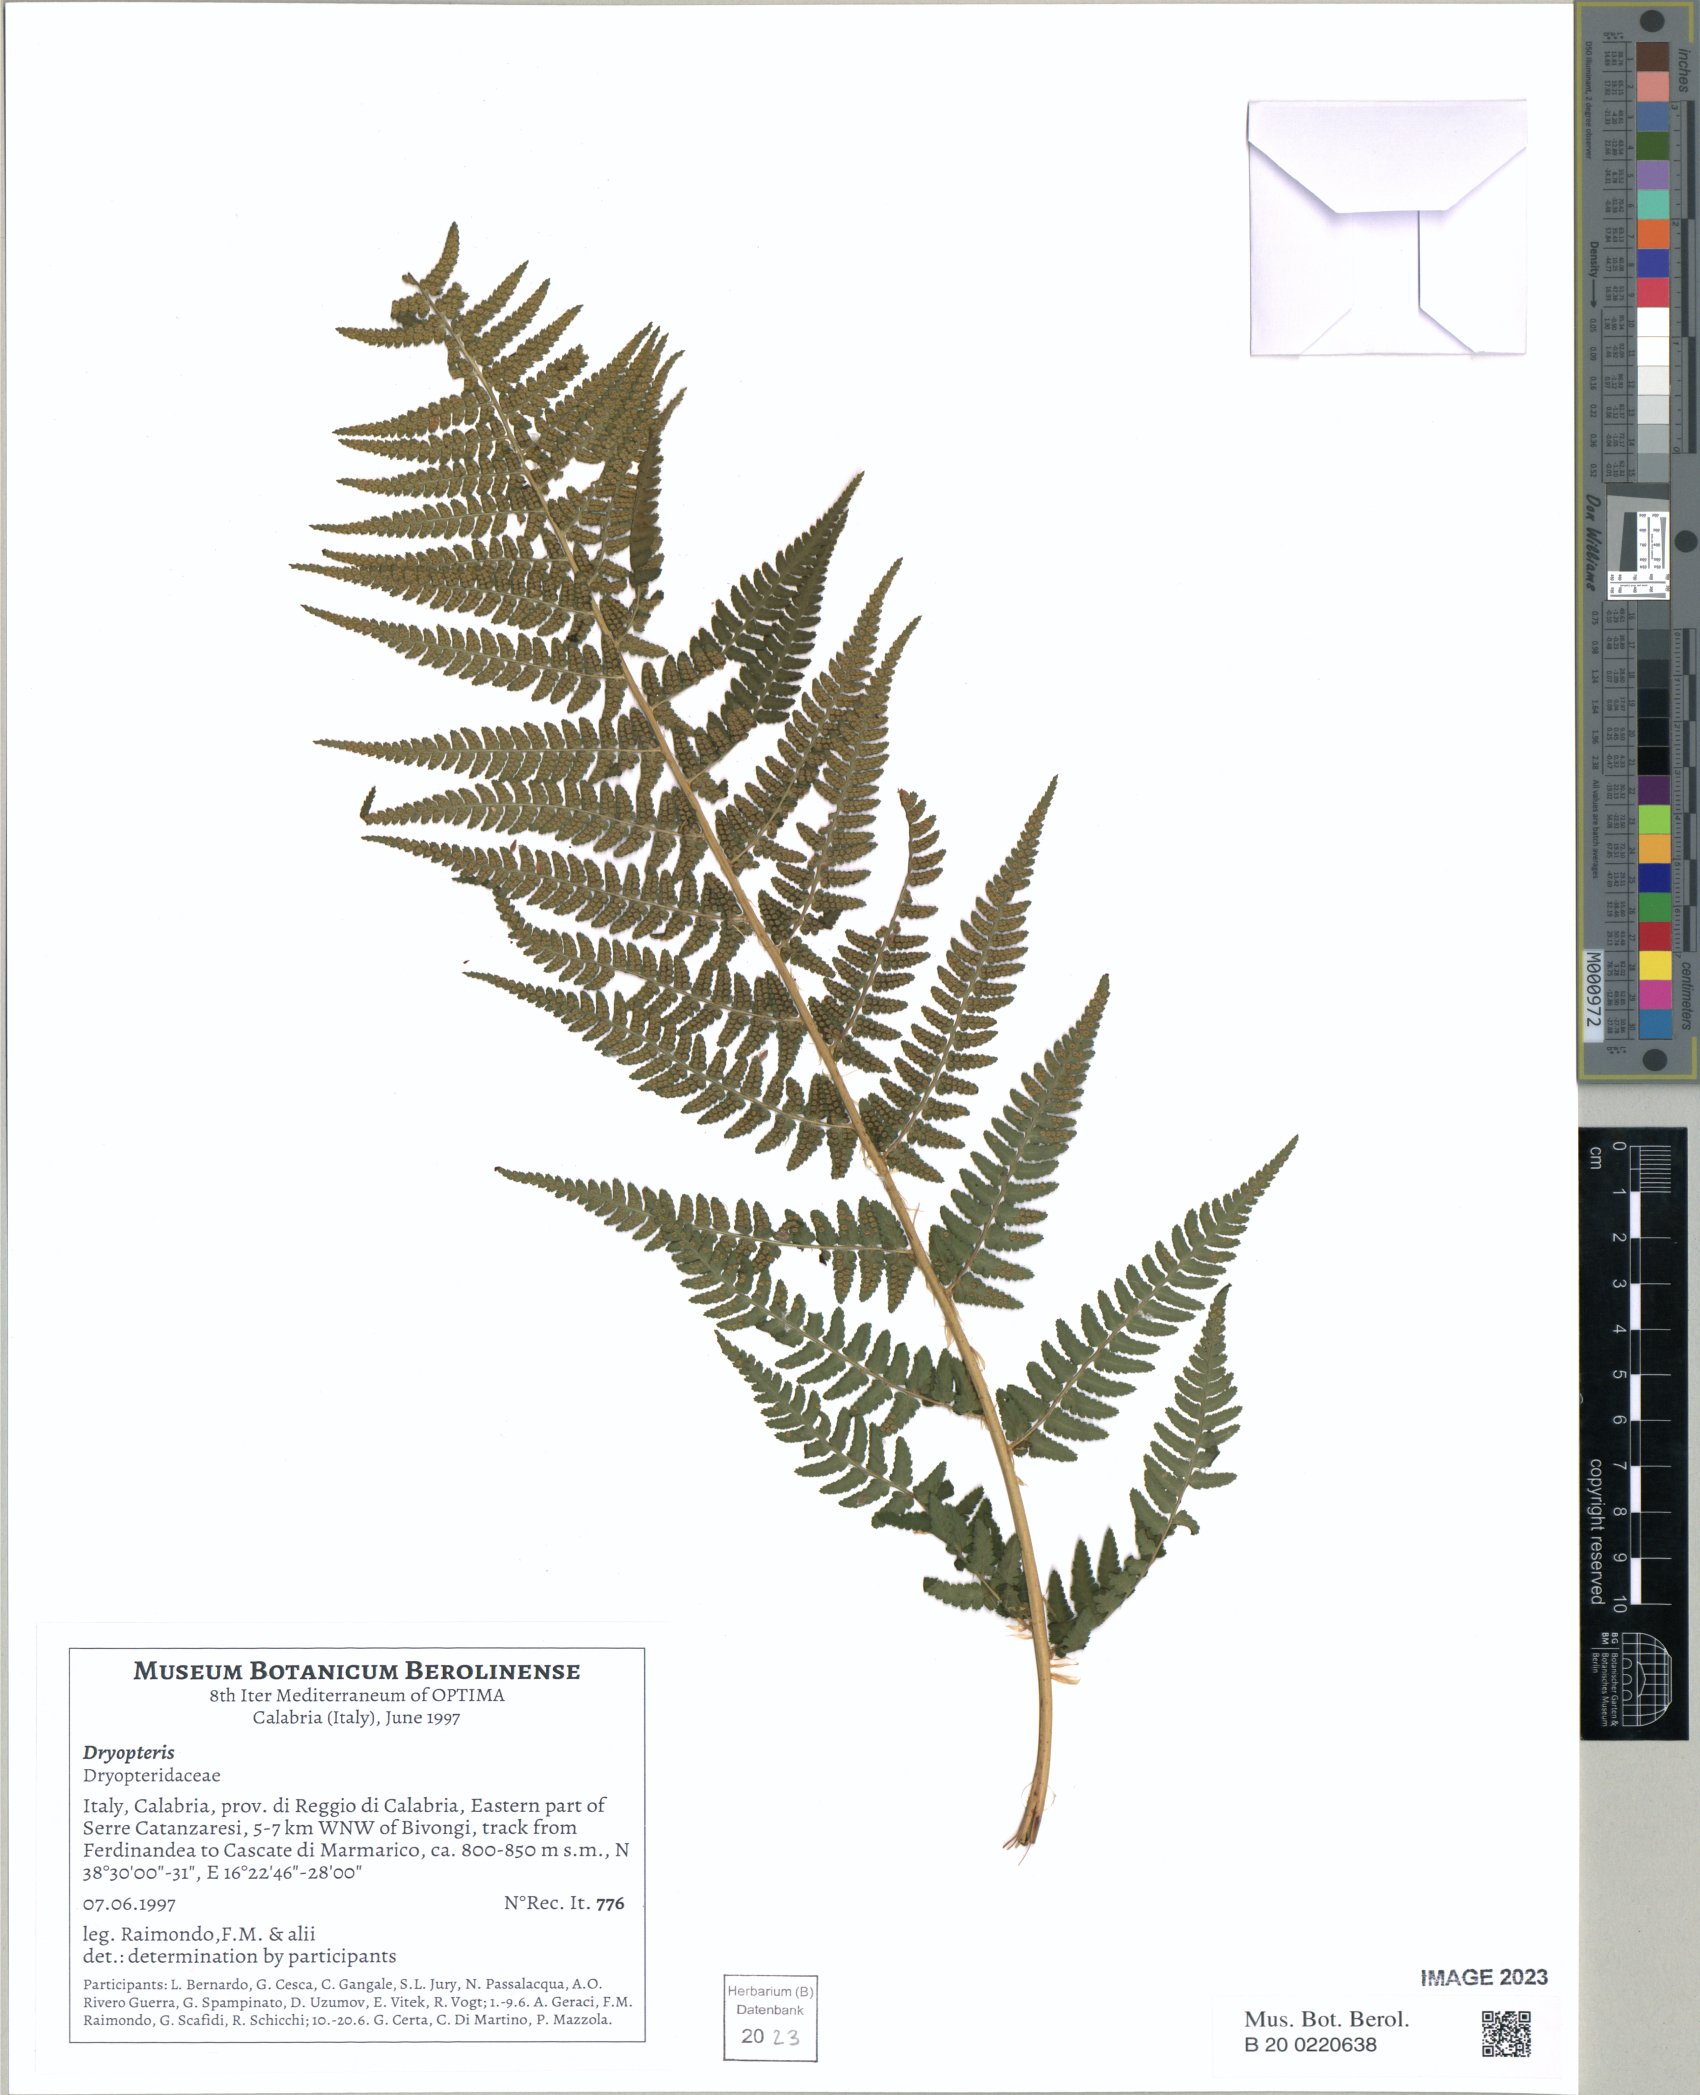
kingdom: Plantae
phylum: Tracheophyta
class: Polypodiopsida
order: Polypodiales
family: Dryopteridaceae
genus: Dryopteris
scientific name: Dryopteris oreades
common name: Mountain male fern
